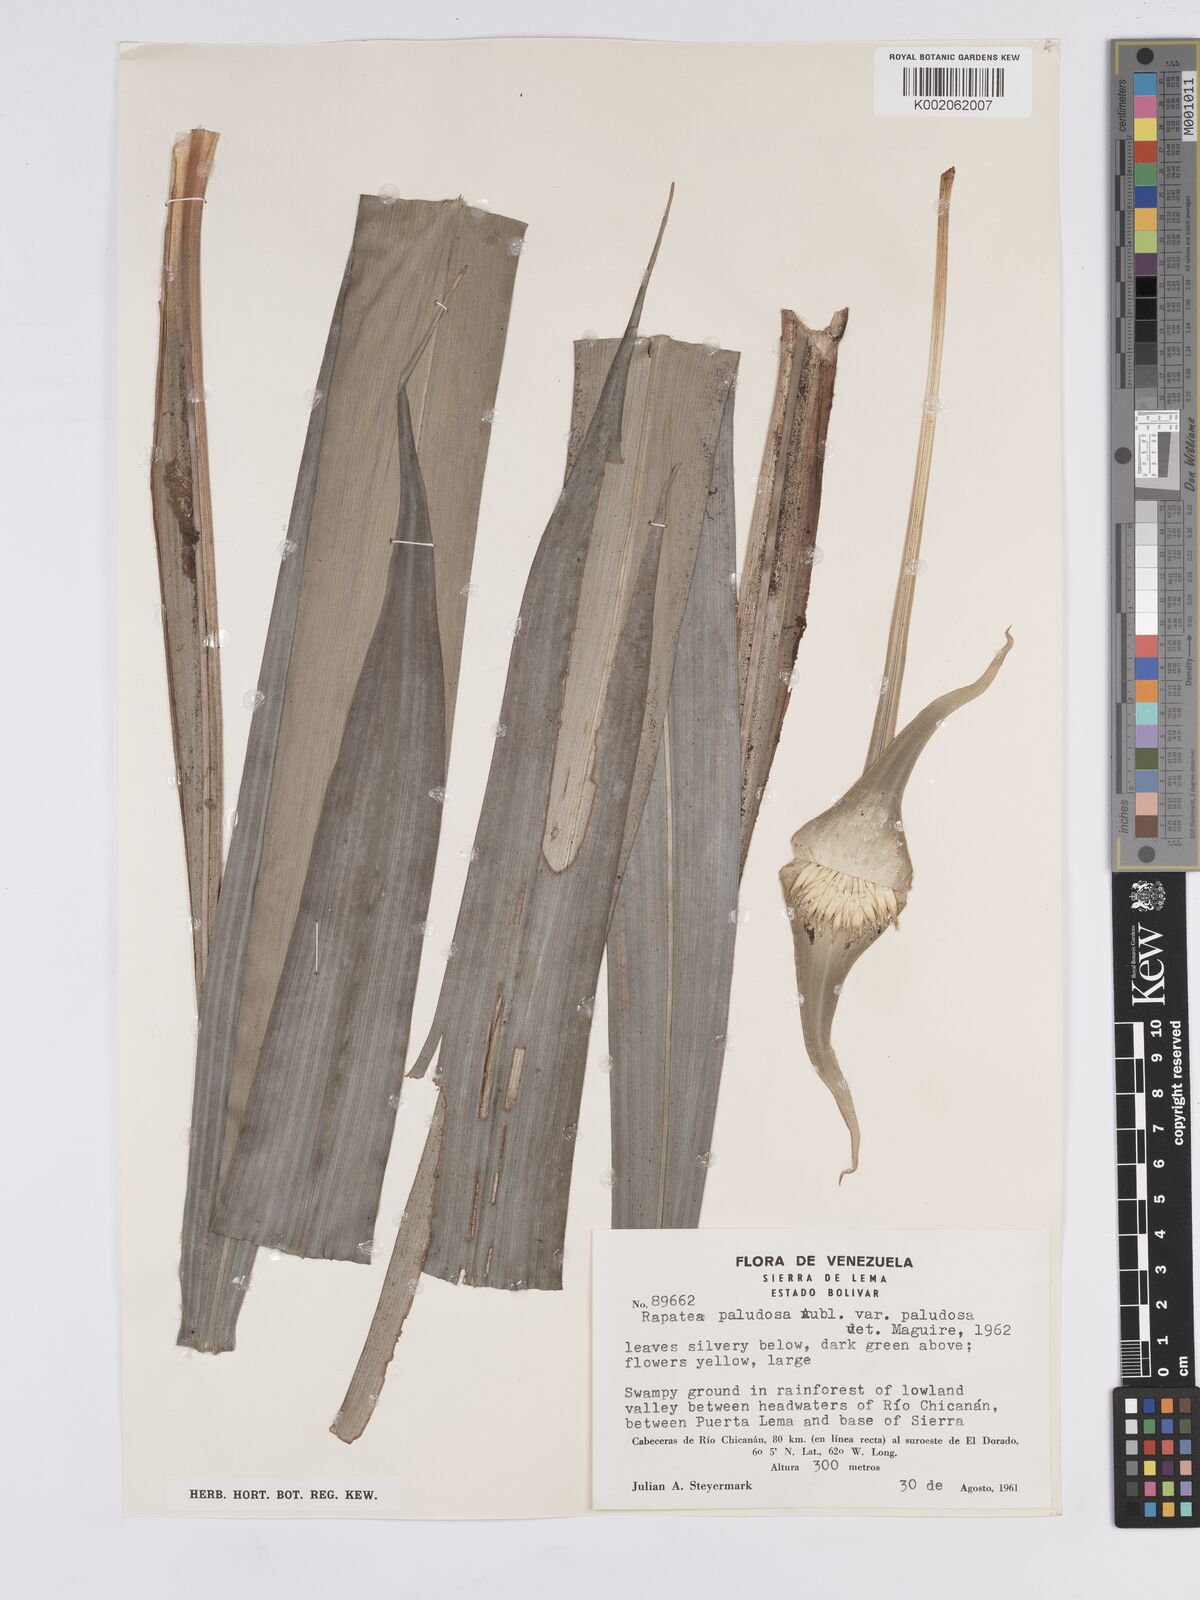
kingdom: Plantae
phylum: Tracheophyta
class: Liliopsida
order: Poales
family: Rapateaceae
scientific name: Rapateaceae
